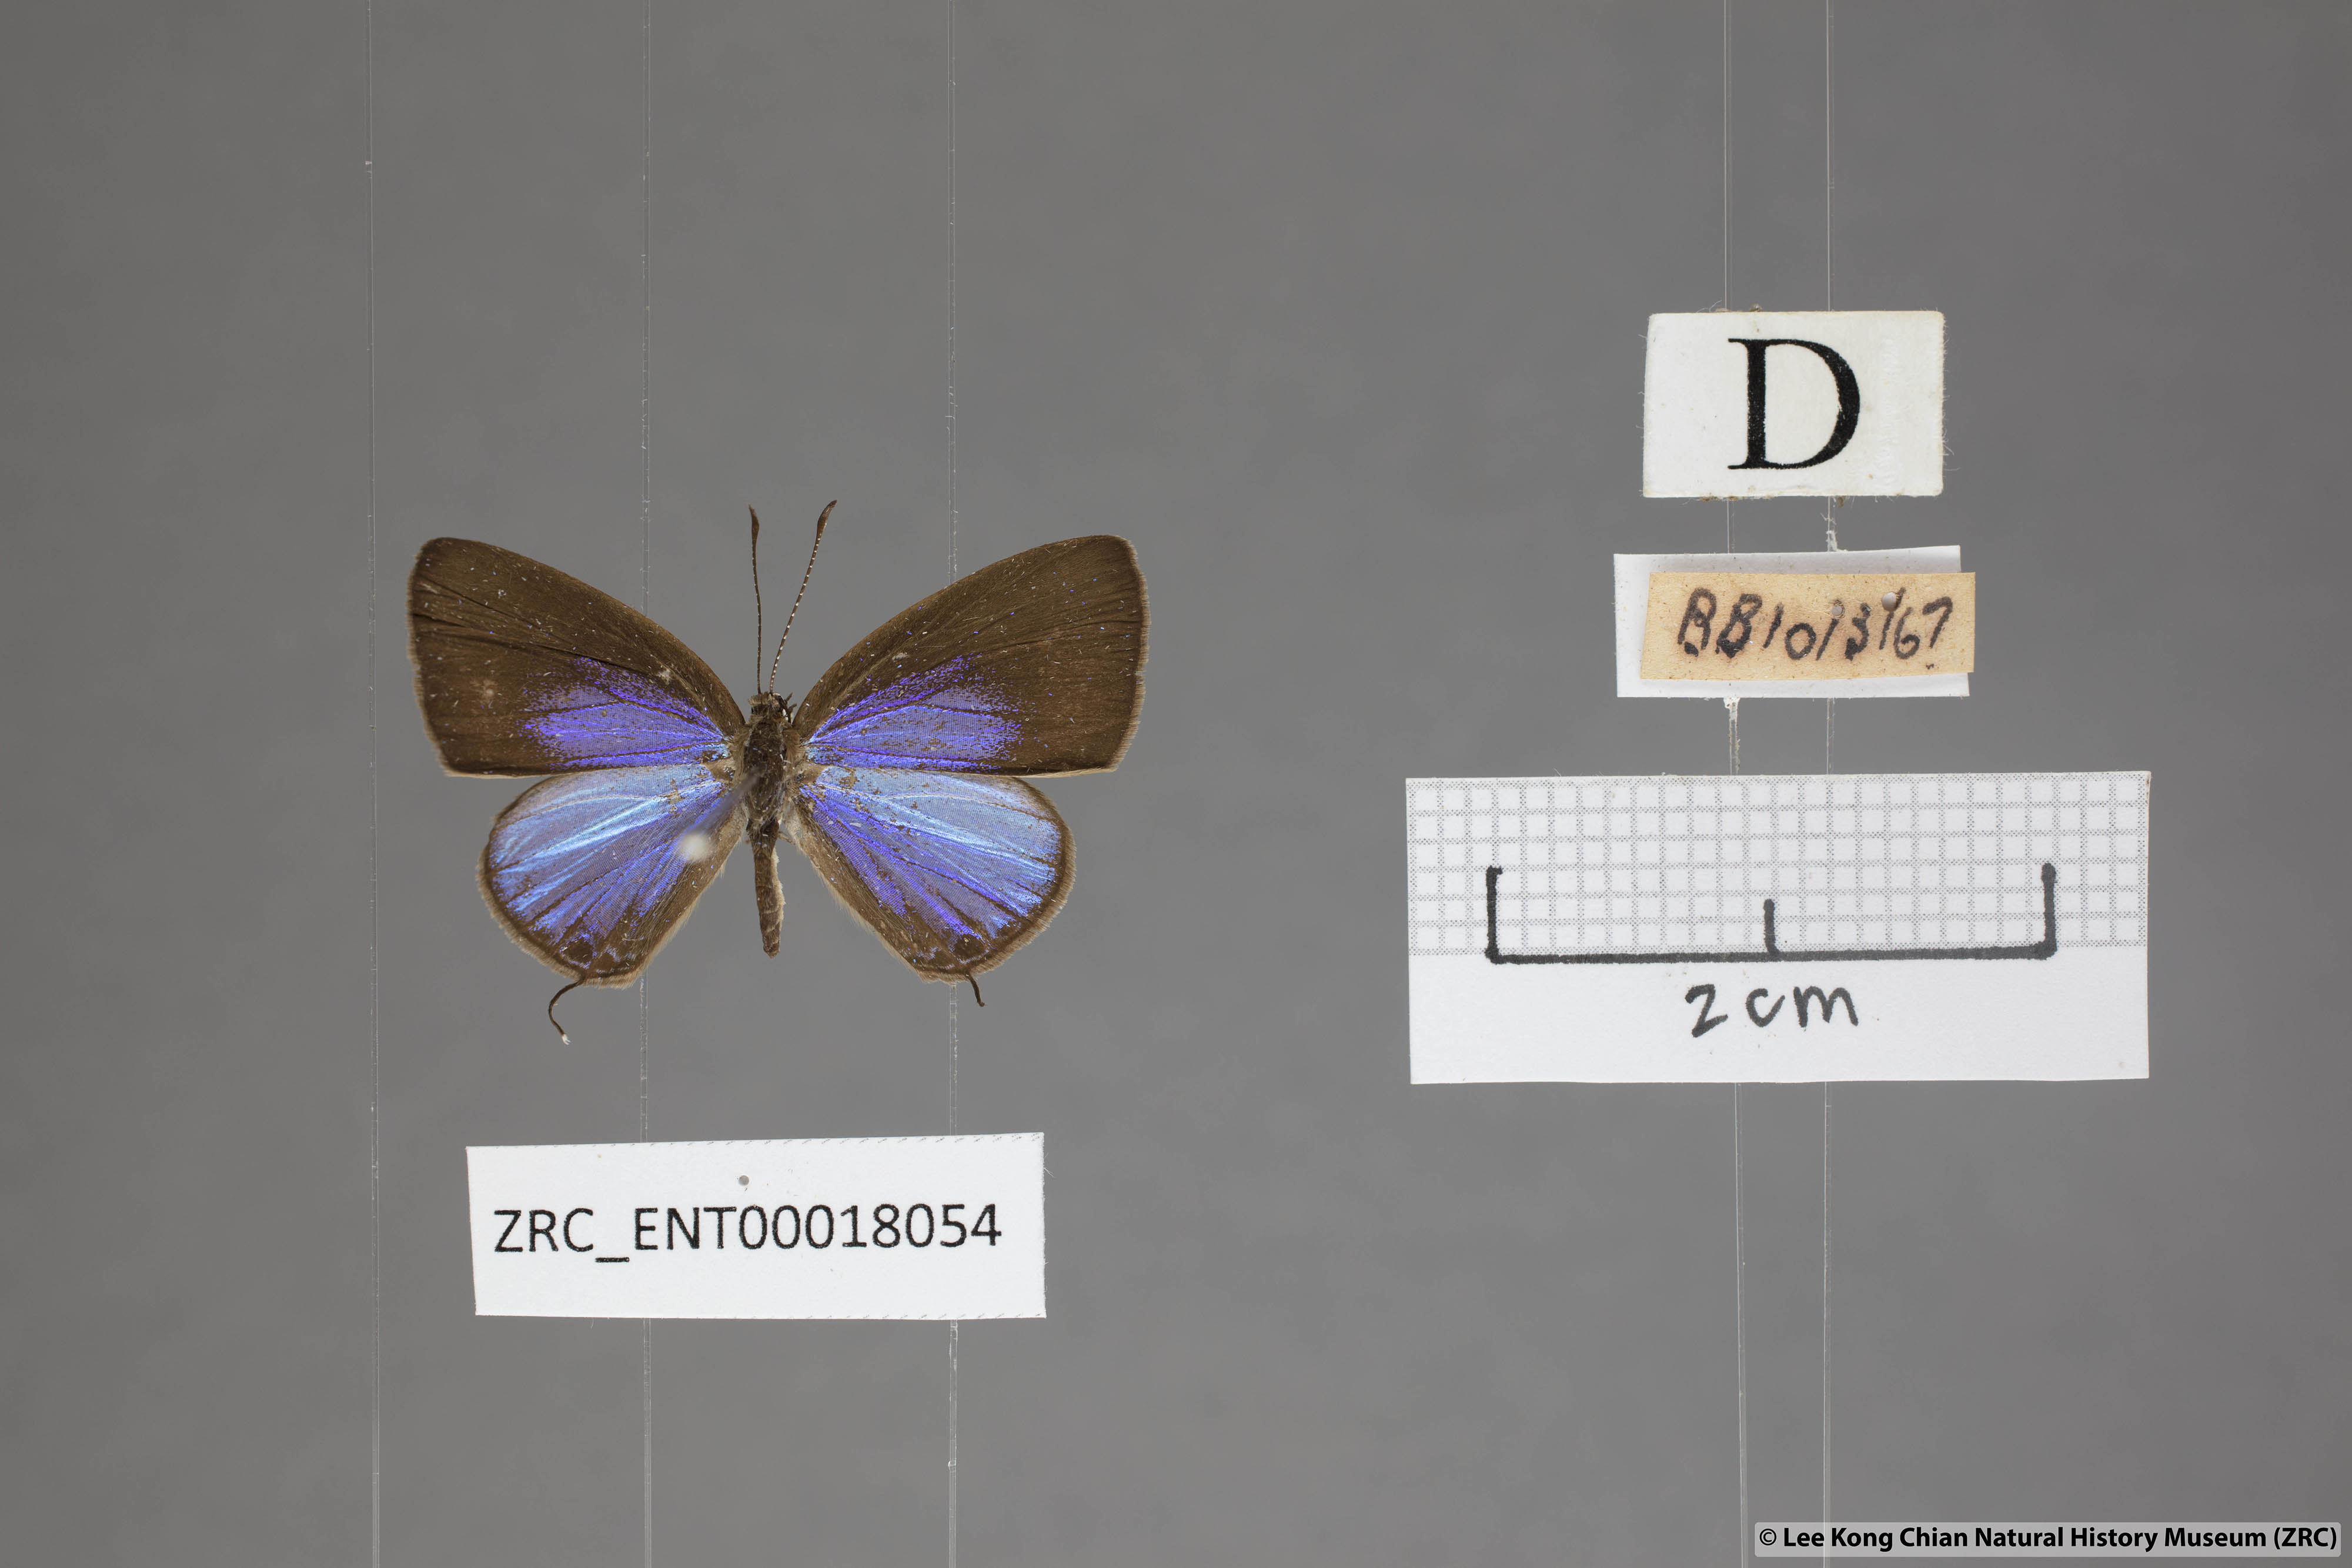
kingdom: Animalia
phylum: Arthropoda
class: Insecta
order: Lepidoptera
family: Lycaenidae
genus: Jamides
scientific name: Jamides bochus
